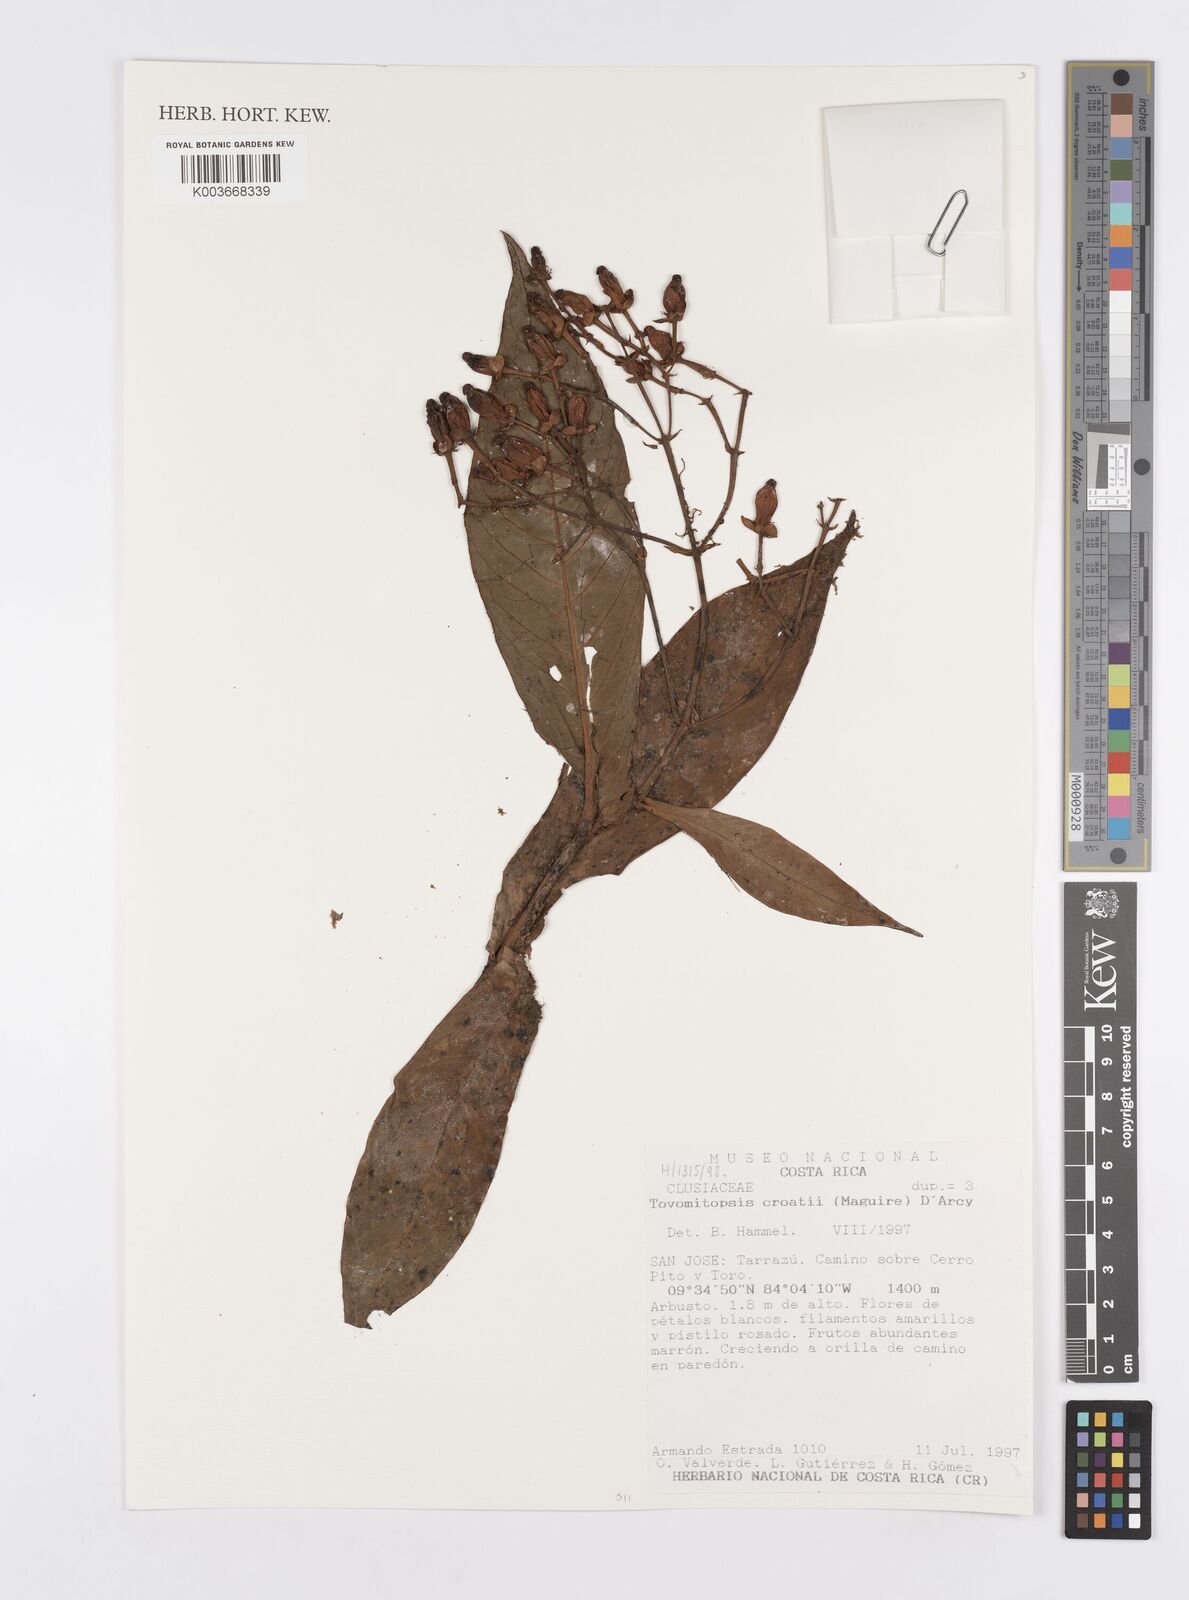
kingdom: Plantae
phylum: Tracheophyta
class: Magnoliopsida
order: Malpighiales
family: Clusiaceae
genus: Chrysochlamys
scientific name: Chrysochlamys croatii
